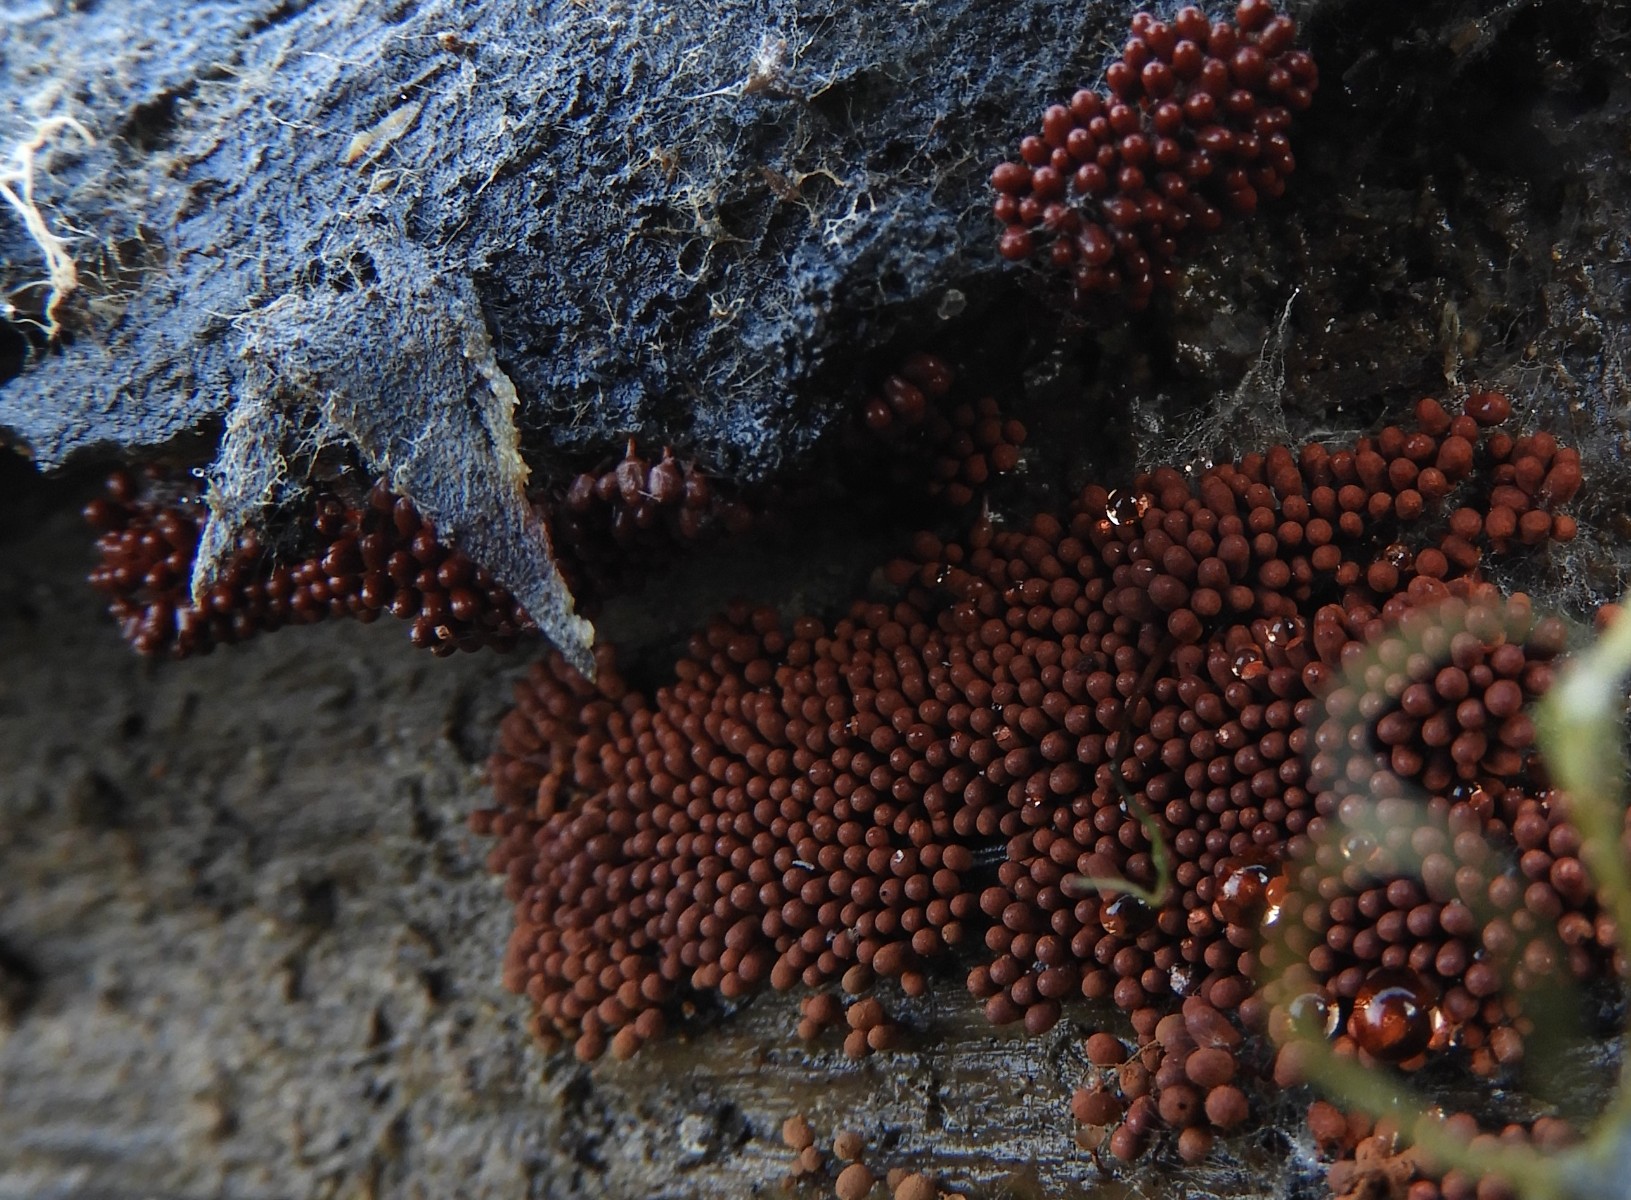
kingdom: Protozoa
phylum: Mycetozoa
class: Myxomycetes
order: Trichiales
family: Arcyriaceae
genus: Arcyria
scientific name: Arcyria ferruginea
